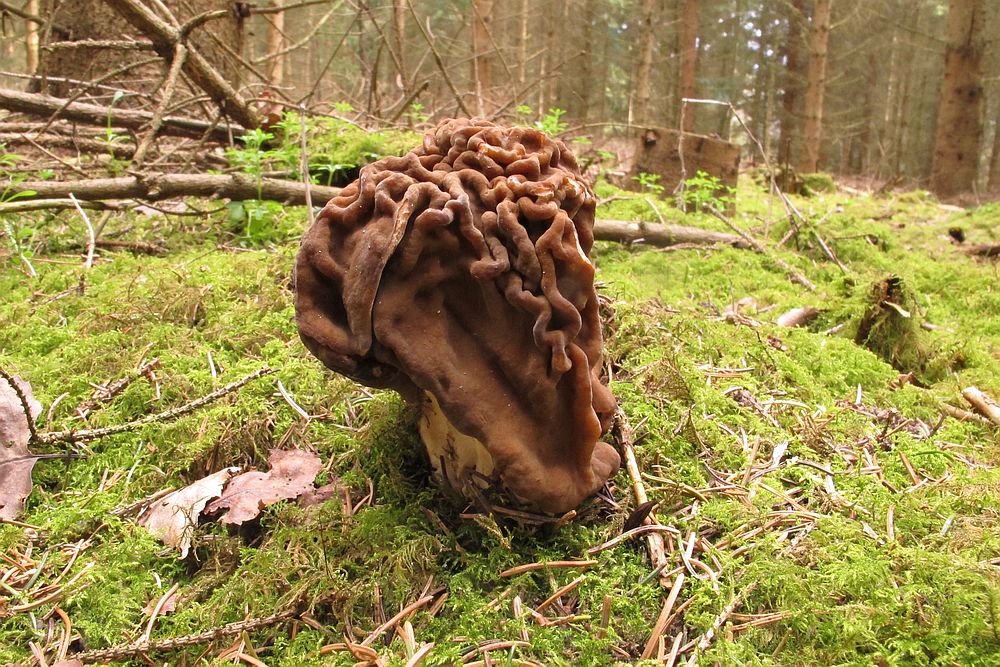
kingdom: Fungi
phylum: Ascomycota
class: Pezizomycetes
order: Pezizales
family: Discinaceae
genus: Gyromitra
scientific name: Gyromitra gigas
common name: kæmpe-stenmorkel
